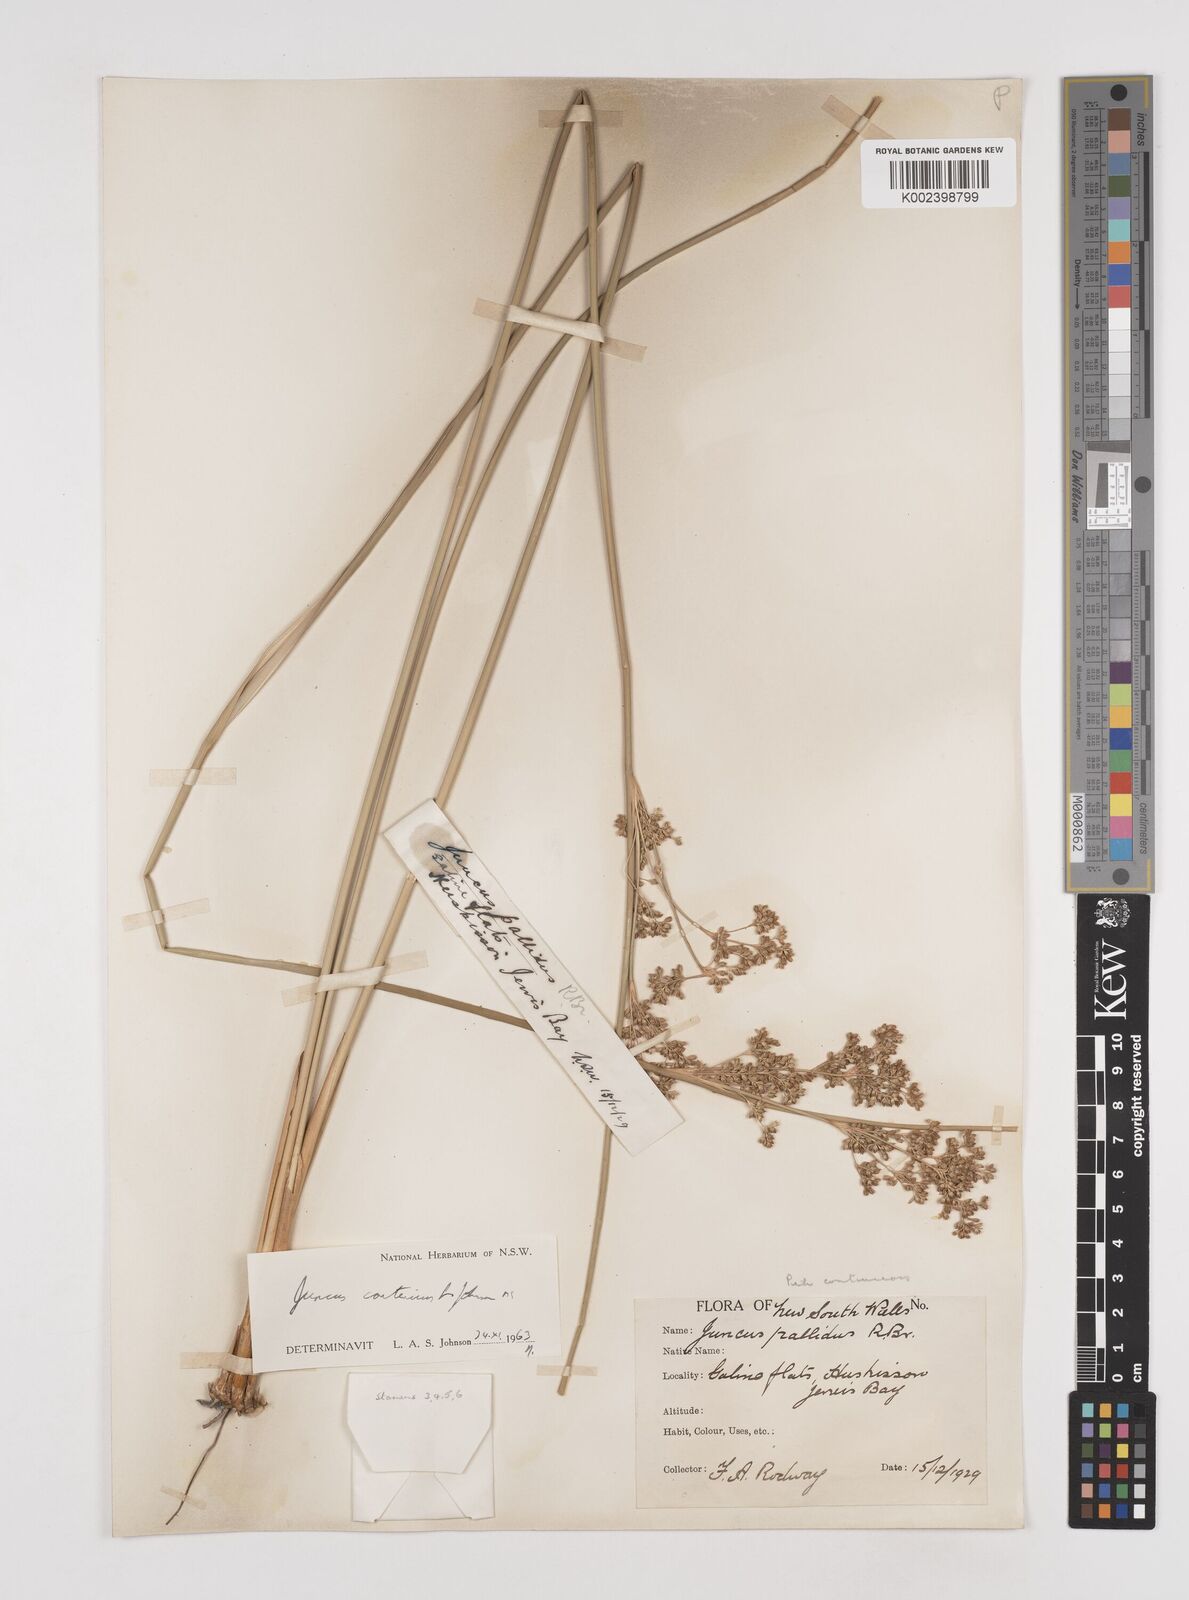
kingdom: Plantae
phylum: Tracheophyta
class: Liliopsida
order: Poales
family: Juncaceae
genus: Juncus
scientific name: Juncus continuus
